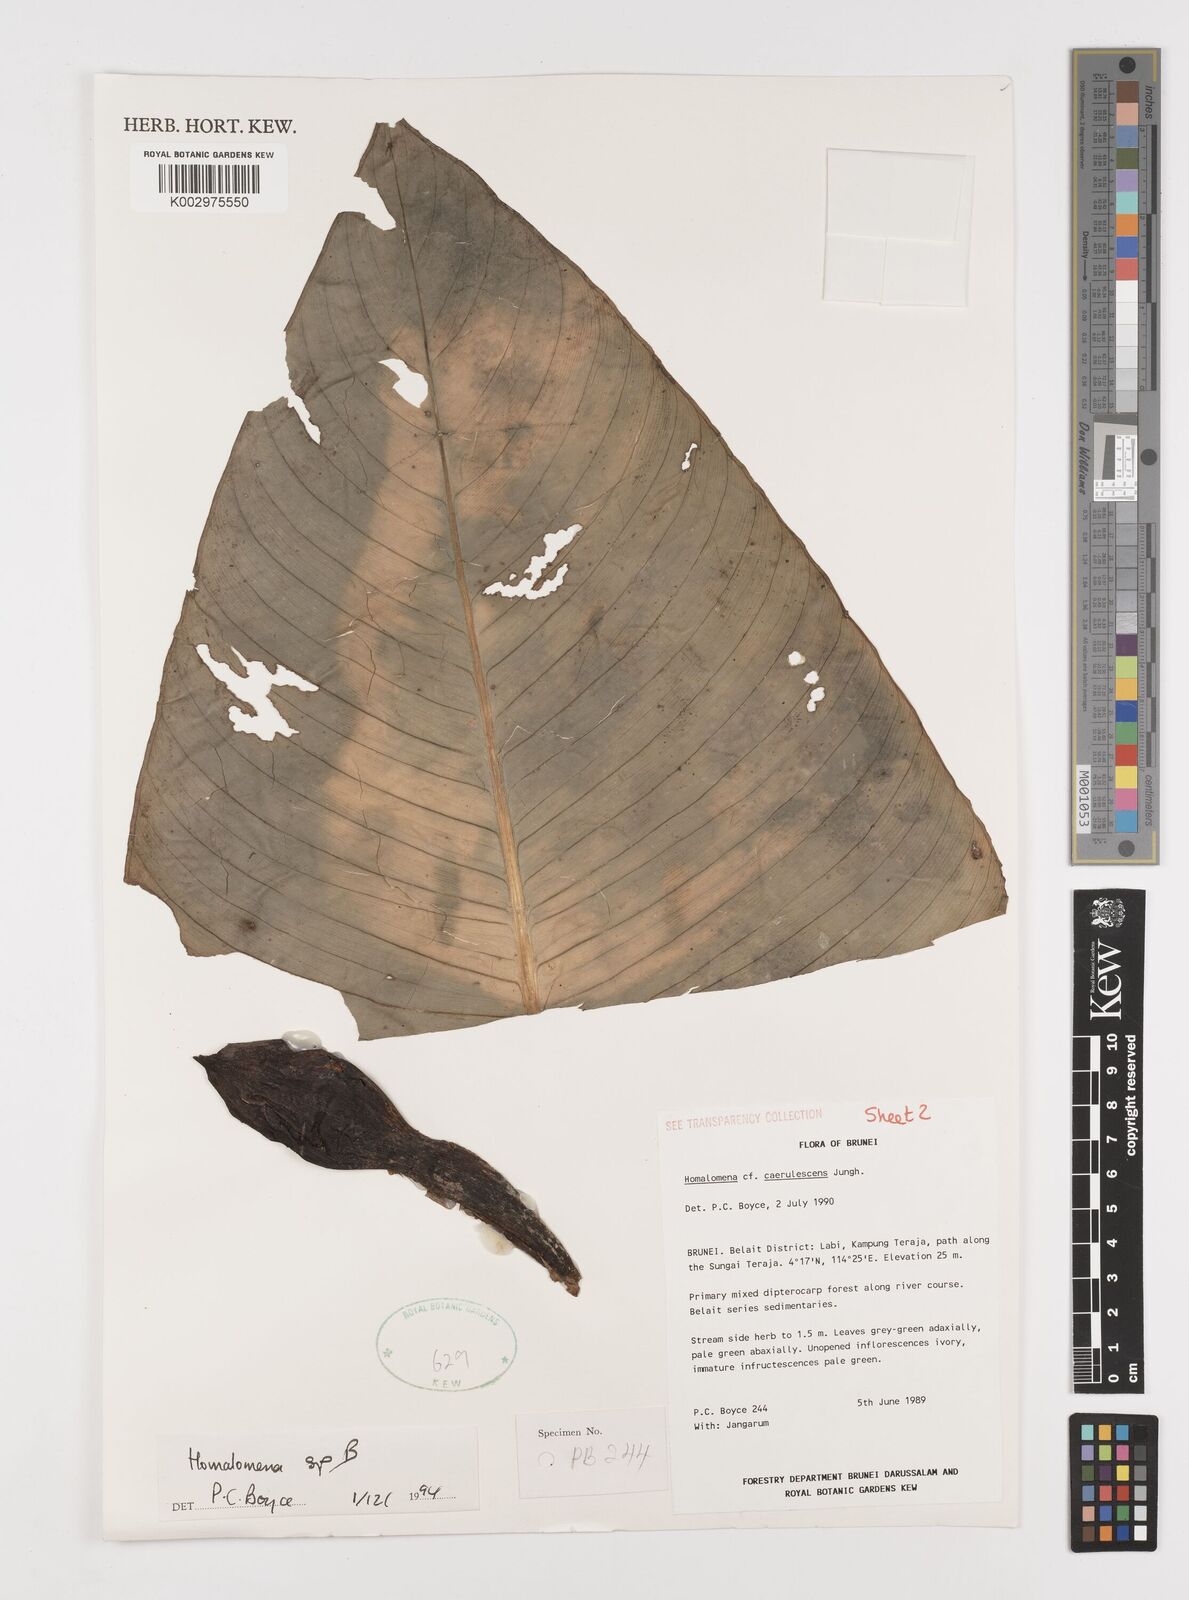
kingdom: Plantae
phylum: Tracheophyta
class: Liliopsida
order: Alismatales
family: Araceae
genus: Homalomena
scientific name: Homalomena
